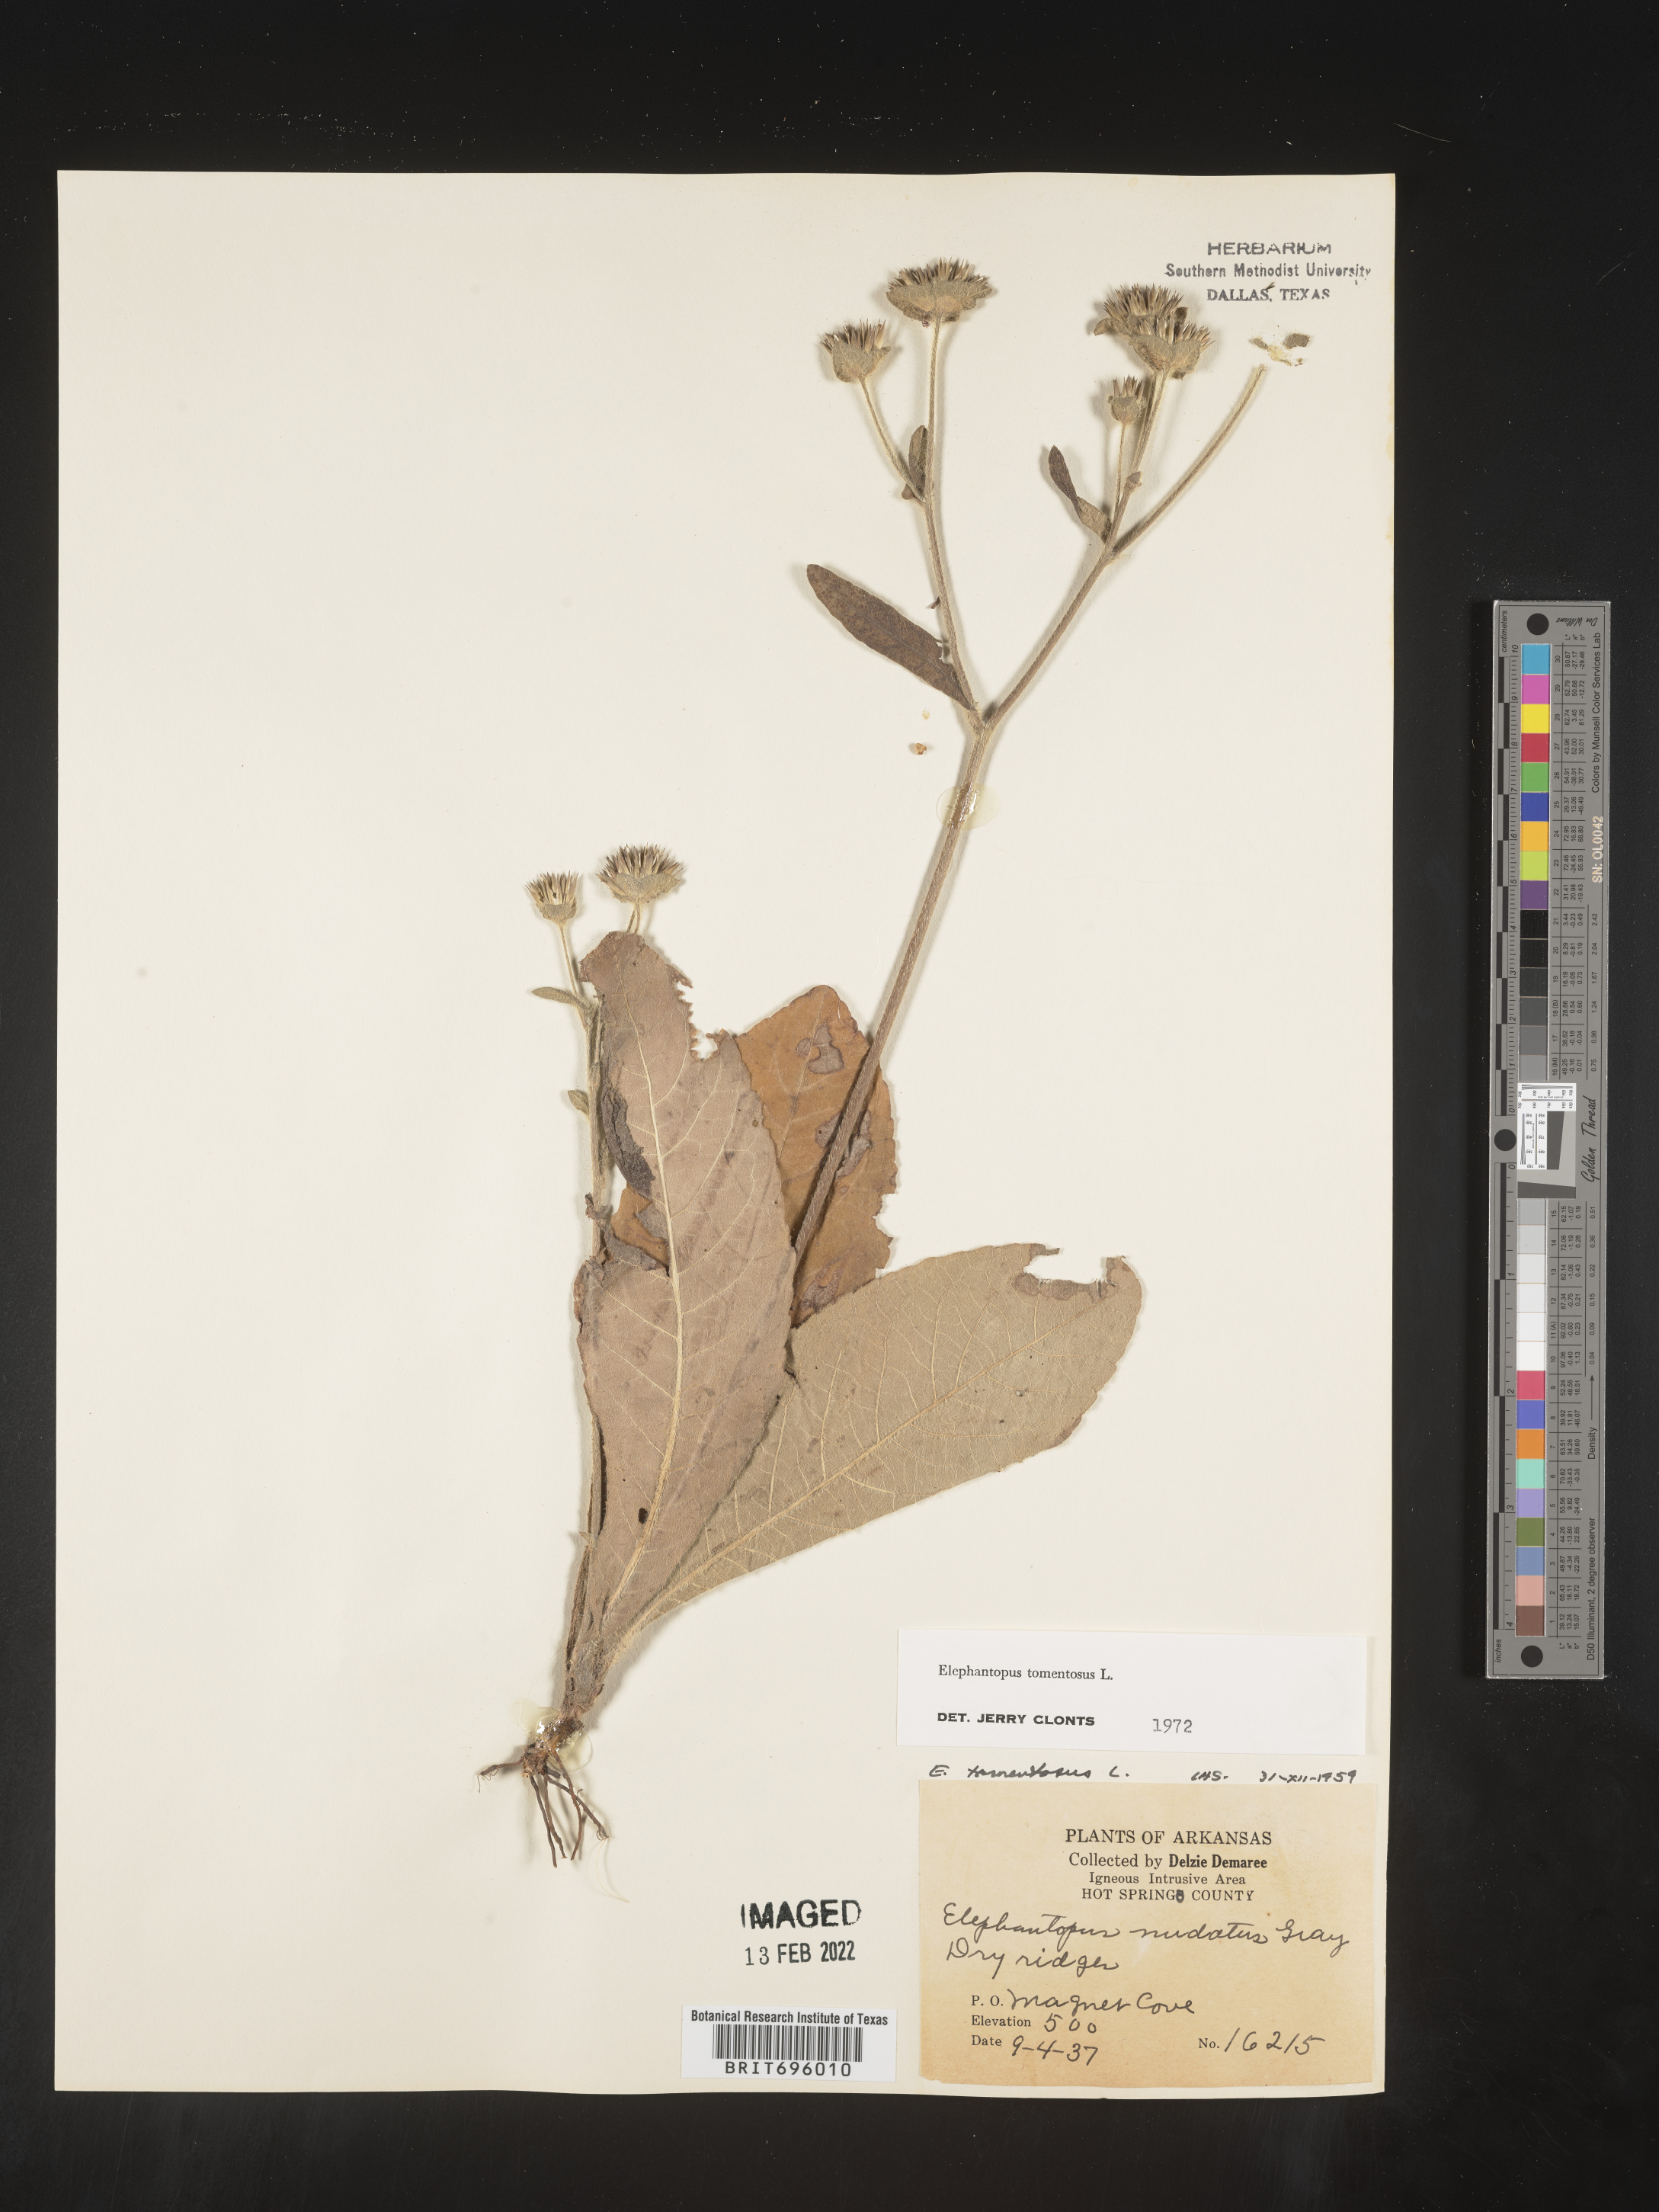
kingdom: Plantae
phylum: Tracheophyta
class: Magnoliopsida
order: Asterales
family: Asteraceae
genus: Elephantopus
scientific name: Elephantopus tomentosus
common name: Tobacco-weed
